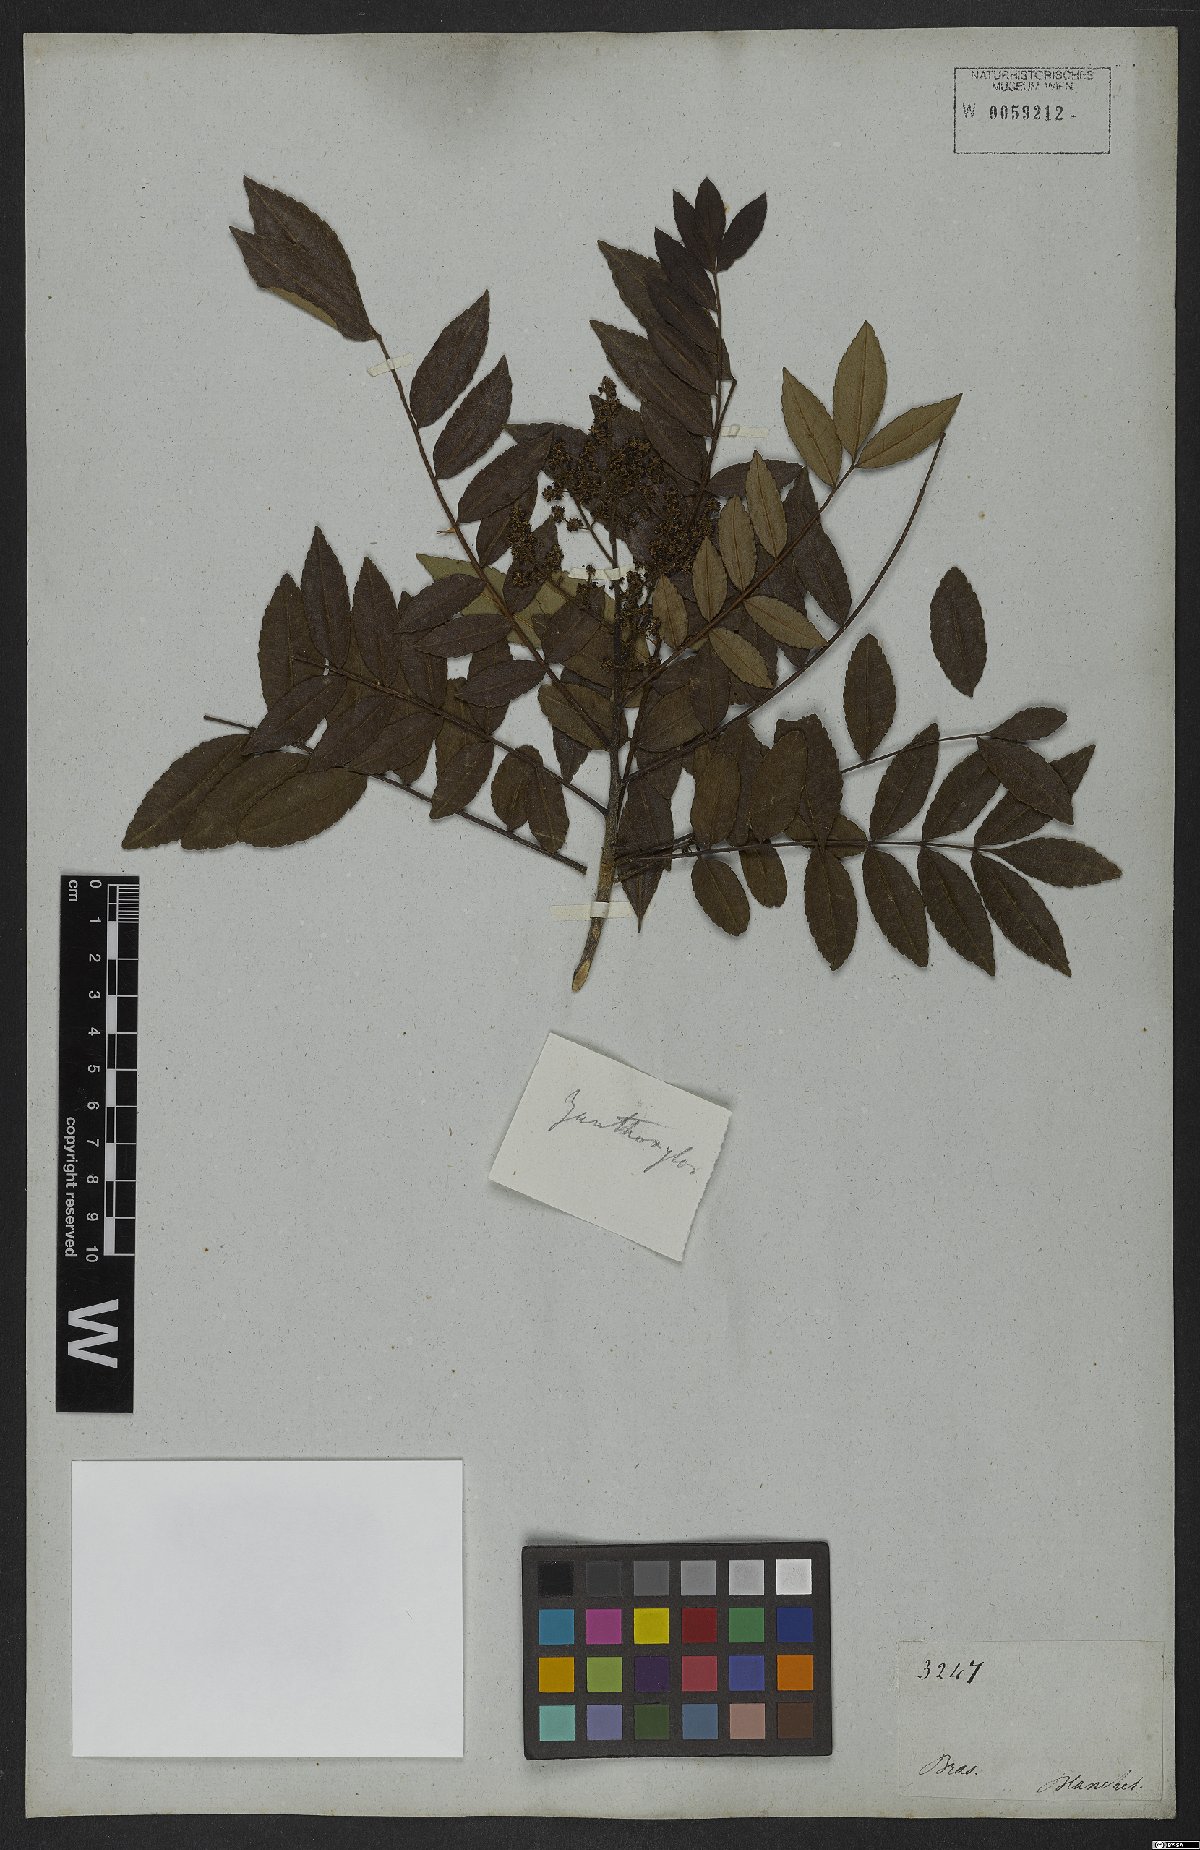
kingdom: Plantae
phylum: Tracheophyta
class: Magnoliopsida
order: Sapindales
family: Rutaceae
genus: Zanthoxylum
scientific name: Zanthoxylum rhoifolium
